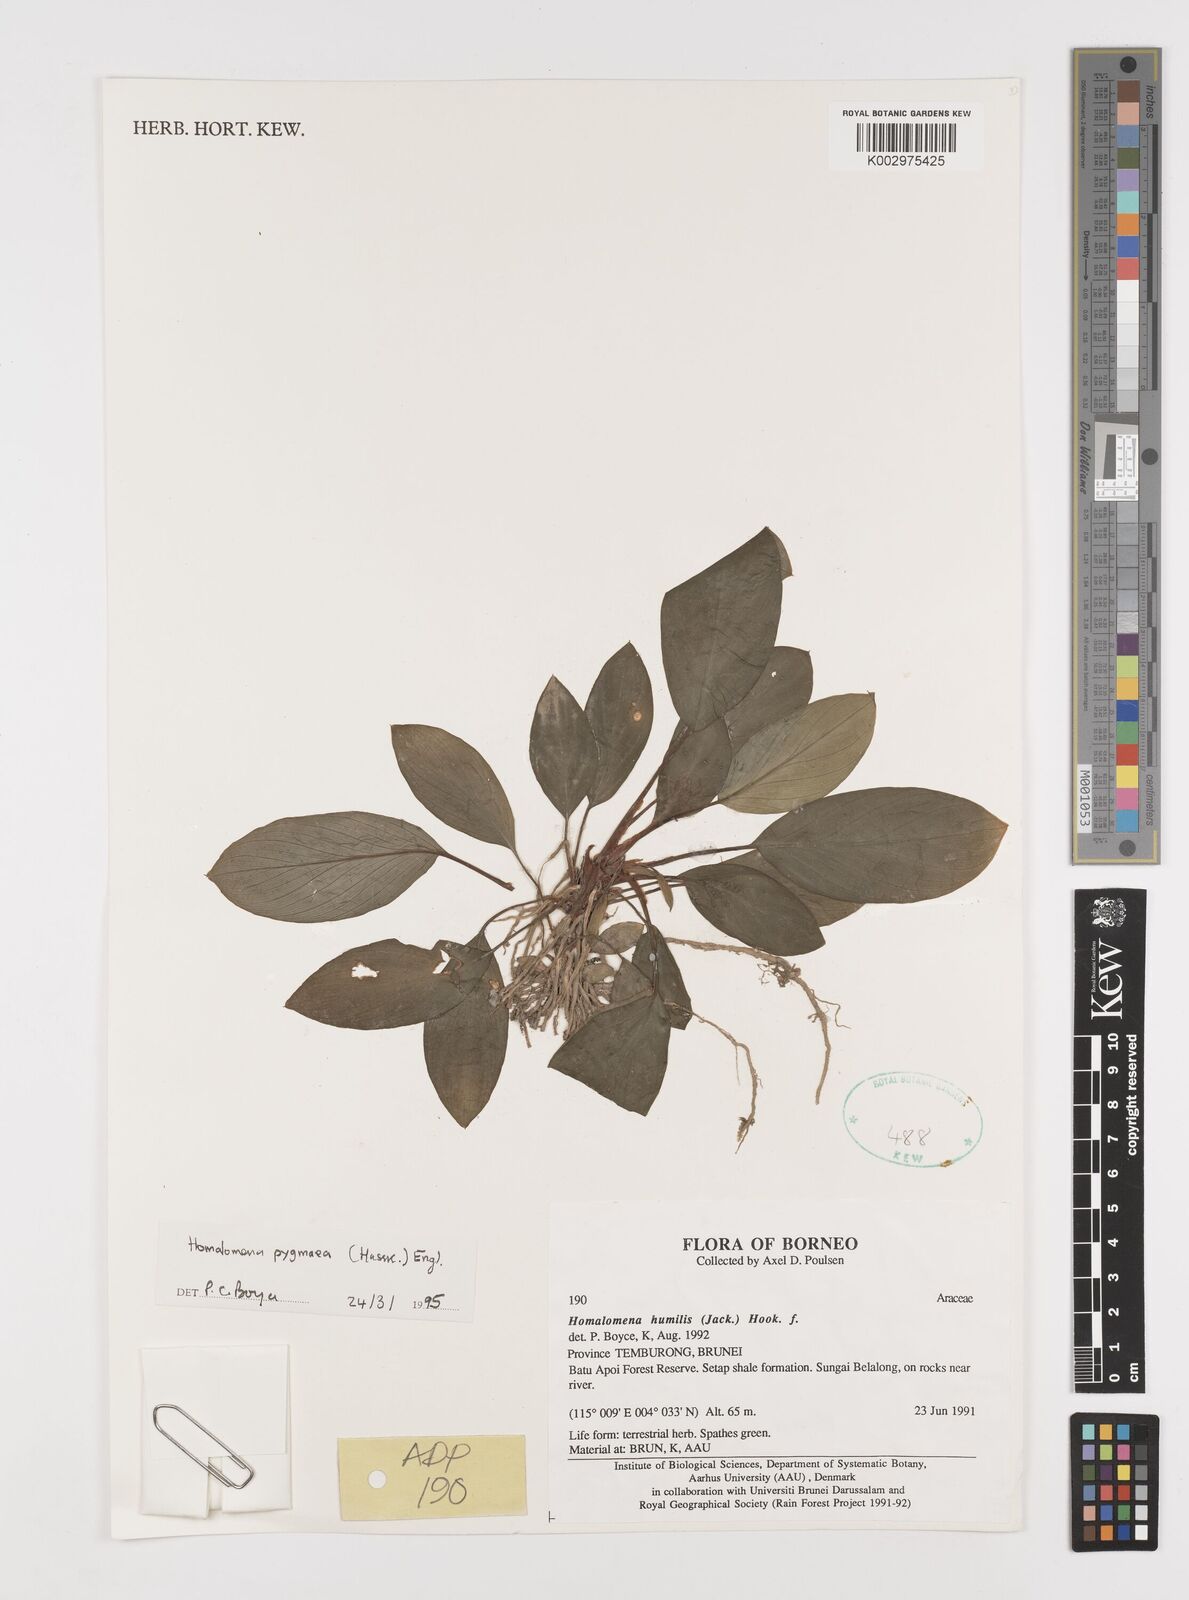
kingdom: Plantae
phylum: Tracheophyta
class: Liliopsida
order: Alismatales
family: Araceae
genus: Homalomena
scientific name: Homalomena humilis
